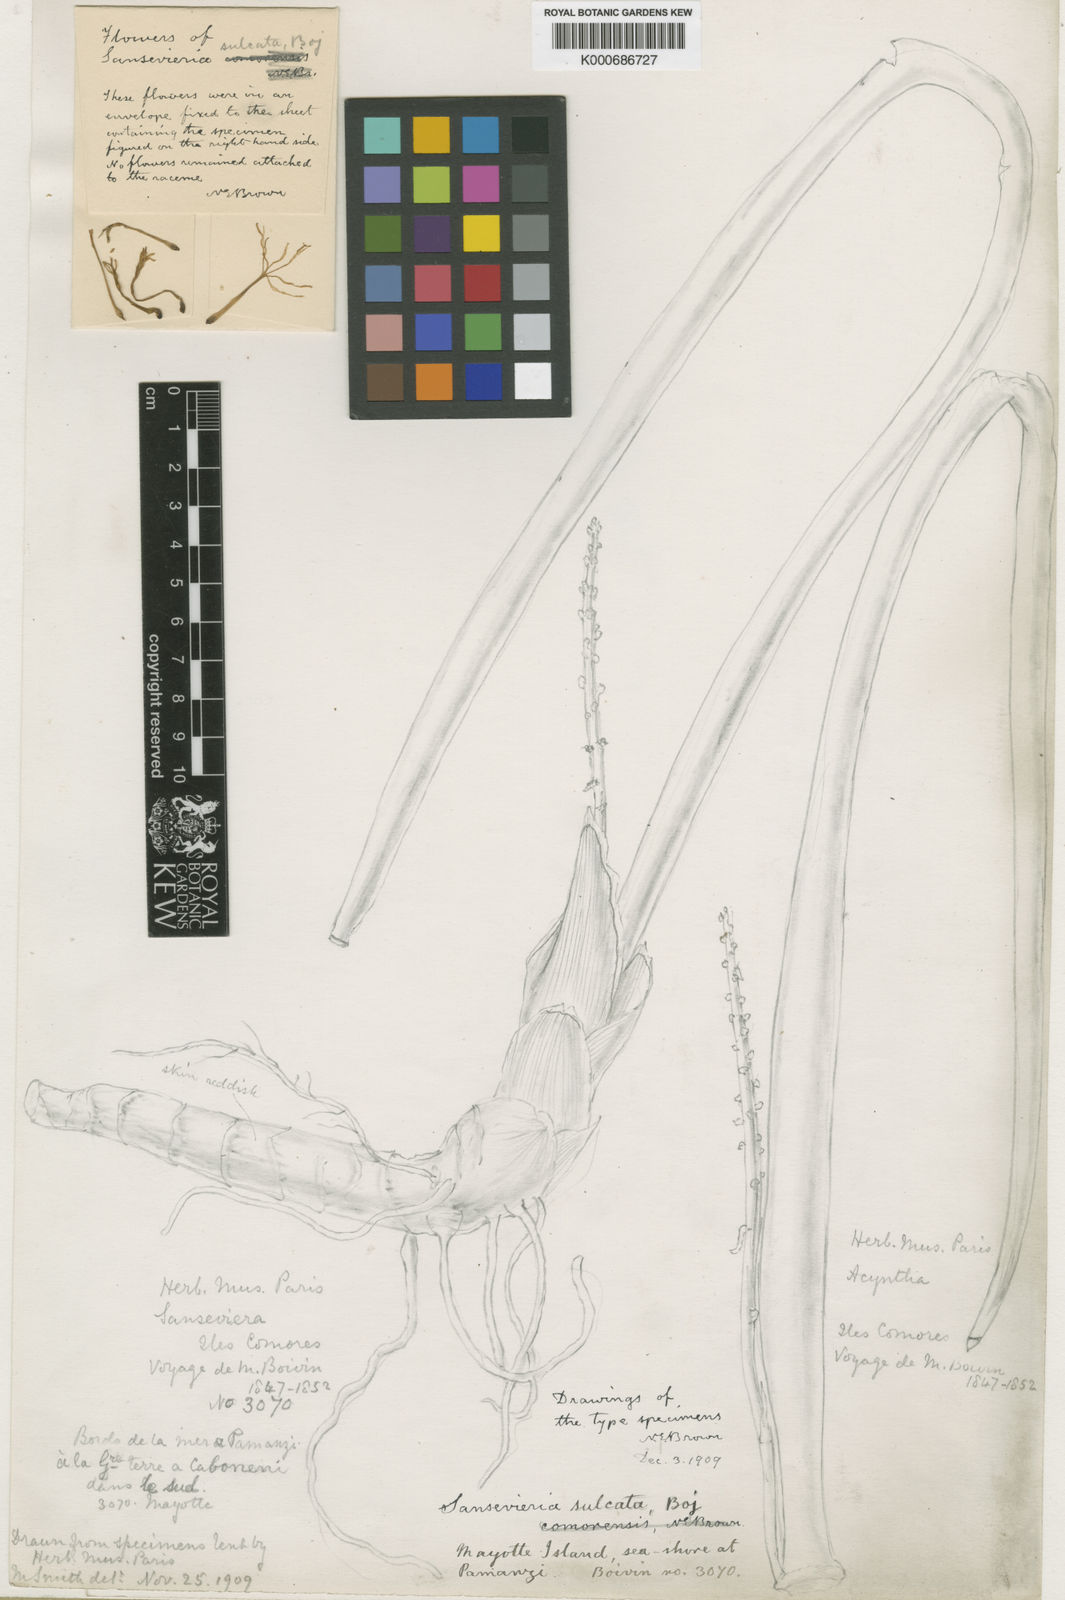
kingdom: Plantae
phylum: Tracheophyta
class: Liliopsida
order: Asparagales
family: Asparagaceae
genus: Dracaena
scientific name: Dracaena canaliculata
